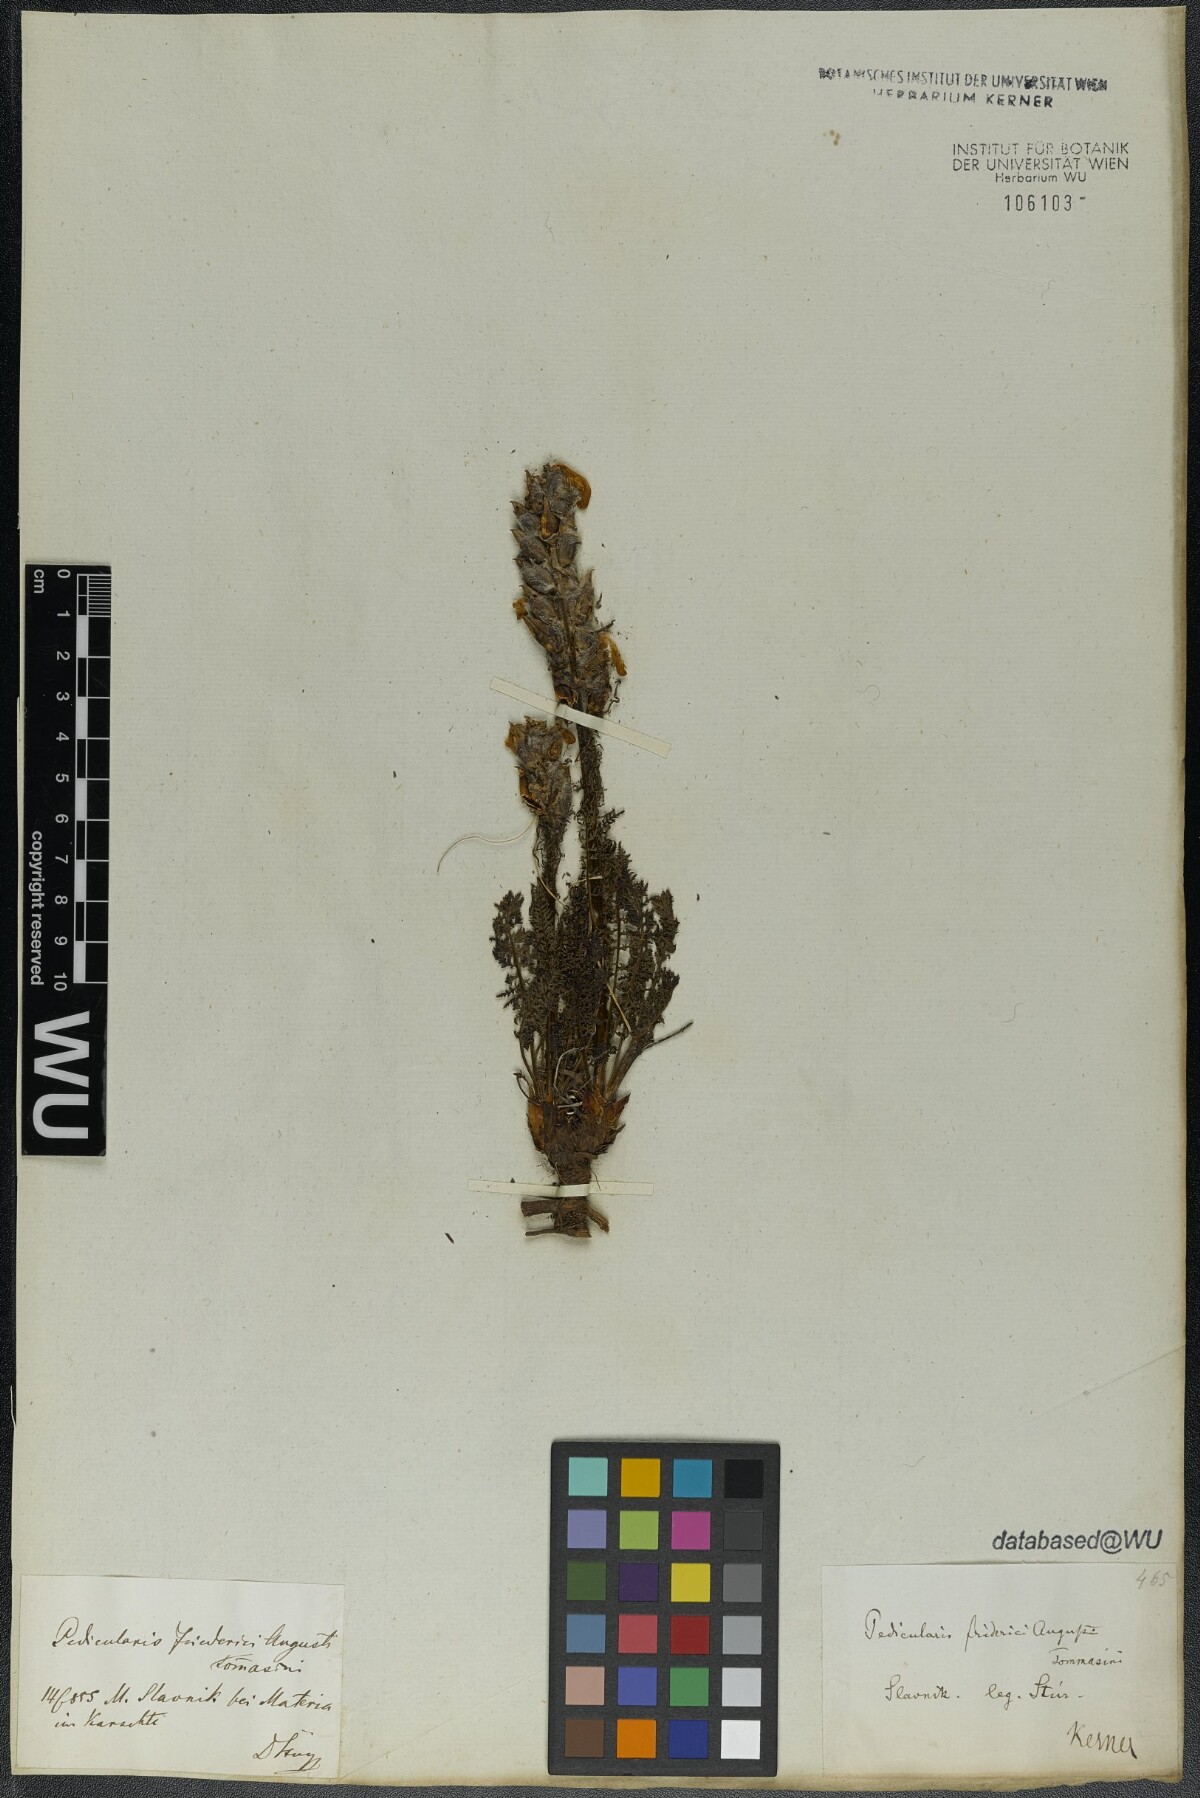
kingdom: Plantae
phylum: Tracheophyta
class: Magnoliopsida
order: Lamiales
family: Orobanchaceae
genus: Pedicularis
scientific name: Pedicularis friderici-augusti
